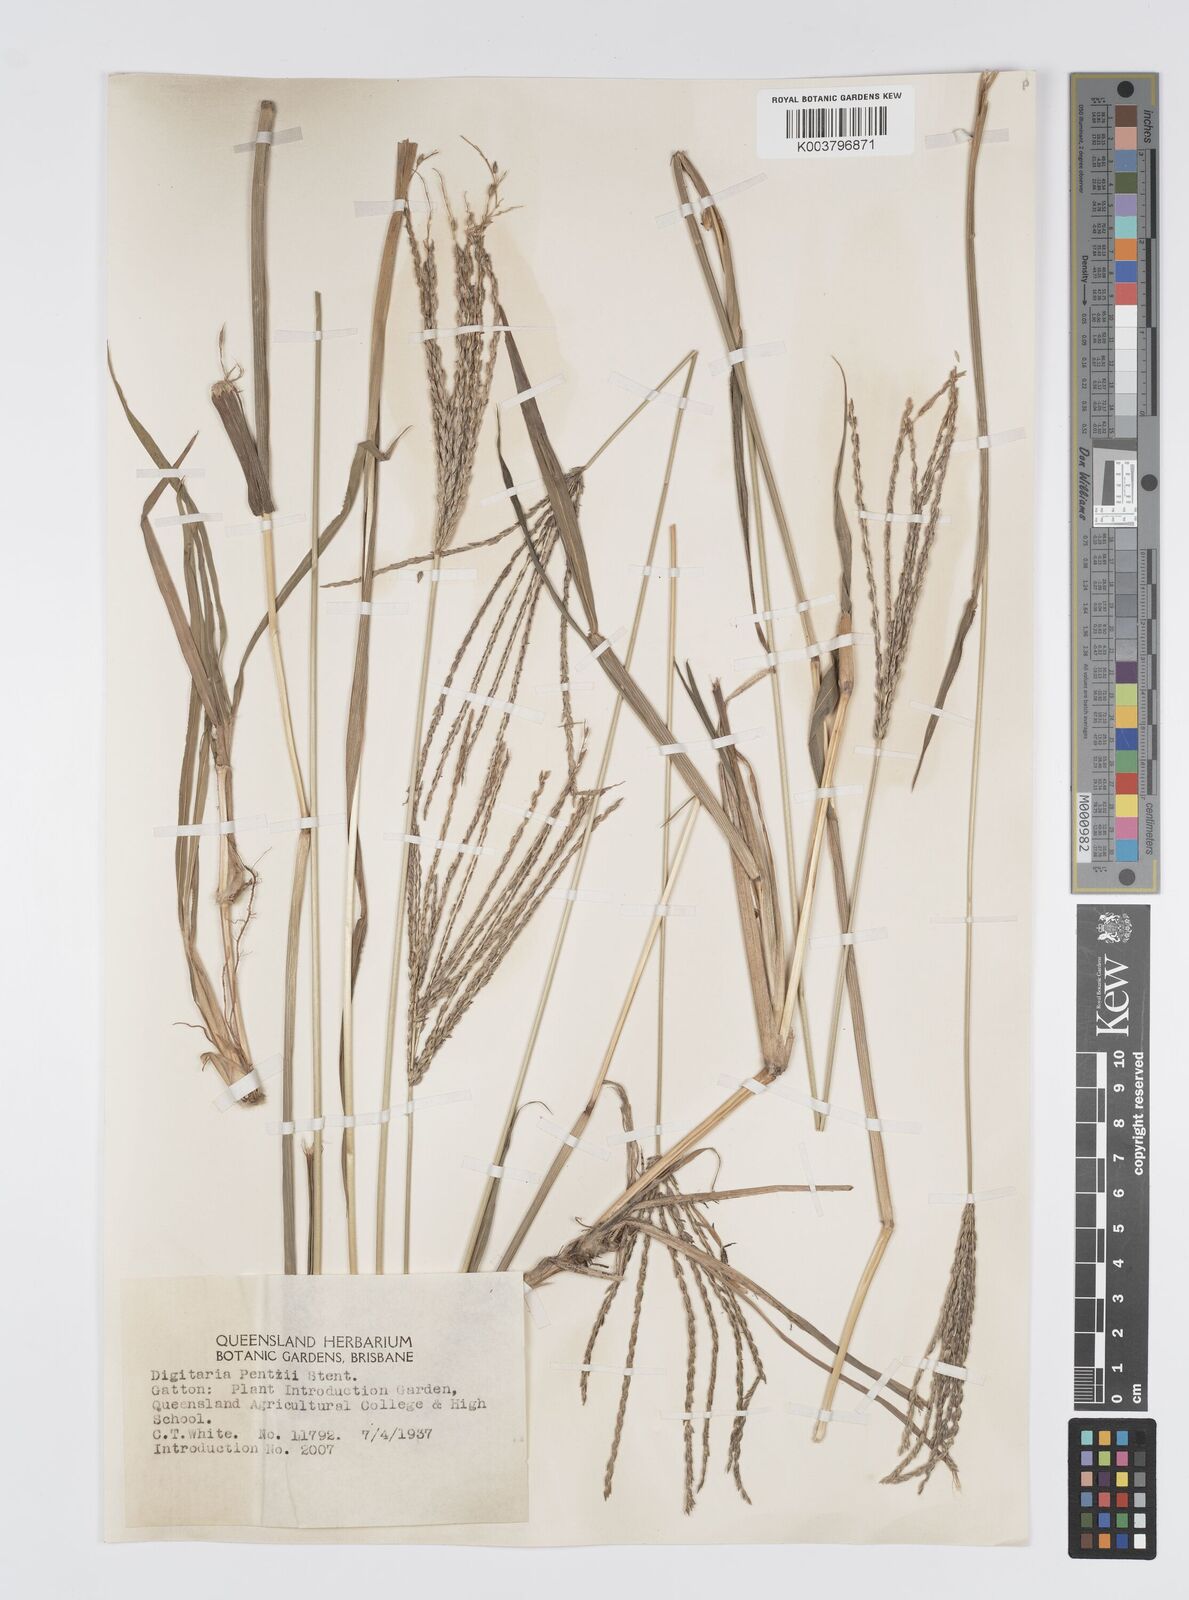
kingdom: Plantae
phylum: Tracheophyta
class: Liliopsida
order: Poales
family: Poaceae
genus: Digitaria
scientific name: Digitaria eriantha
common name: Digitgrass
